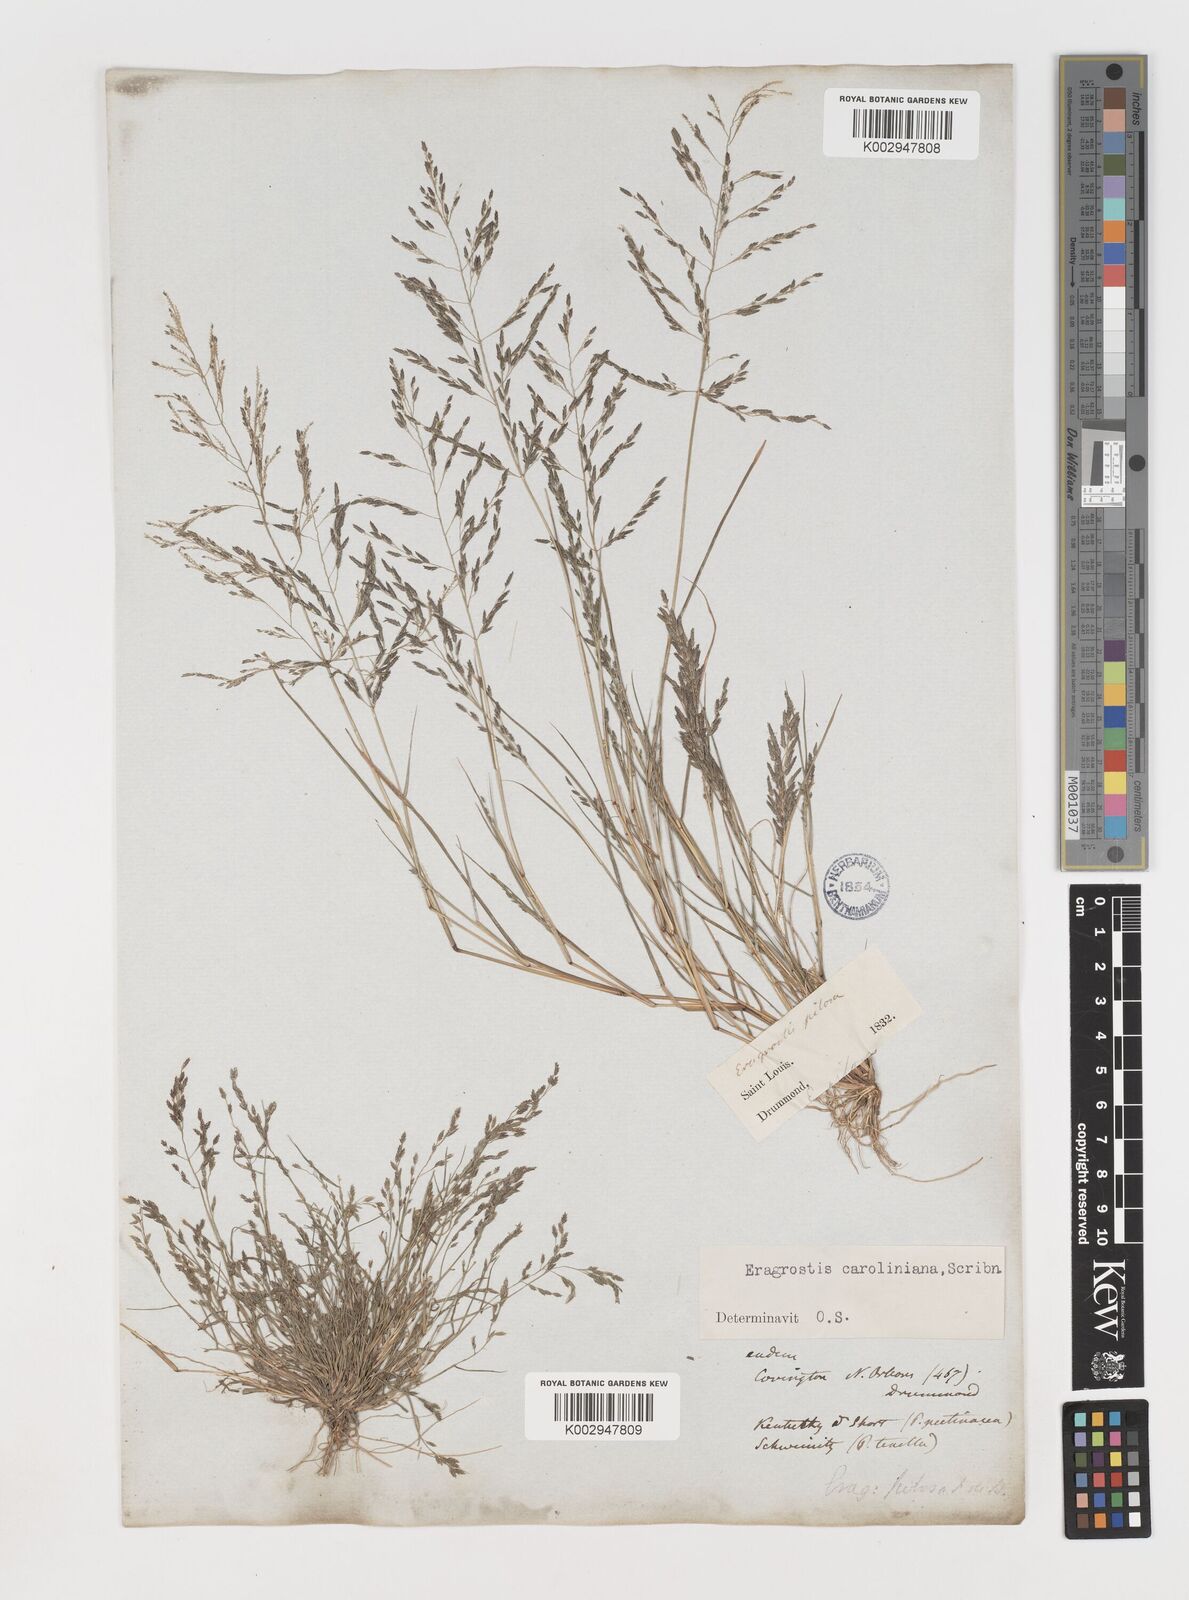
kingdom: Plantae
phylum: Tracheophyta
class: Liliopsida
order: Poales
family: Poaceae
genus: Eragrostis
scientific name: Eragrostis pectinacea
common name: Tufted lovegrass
